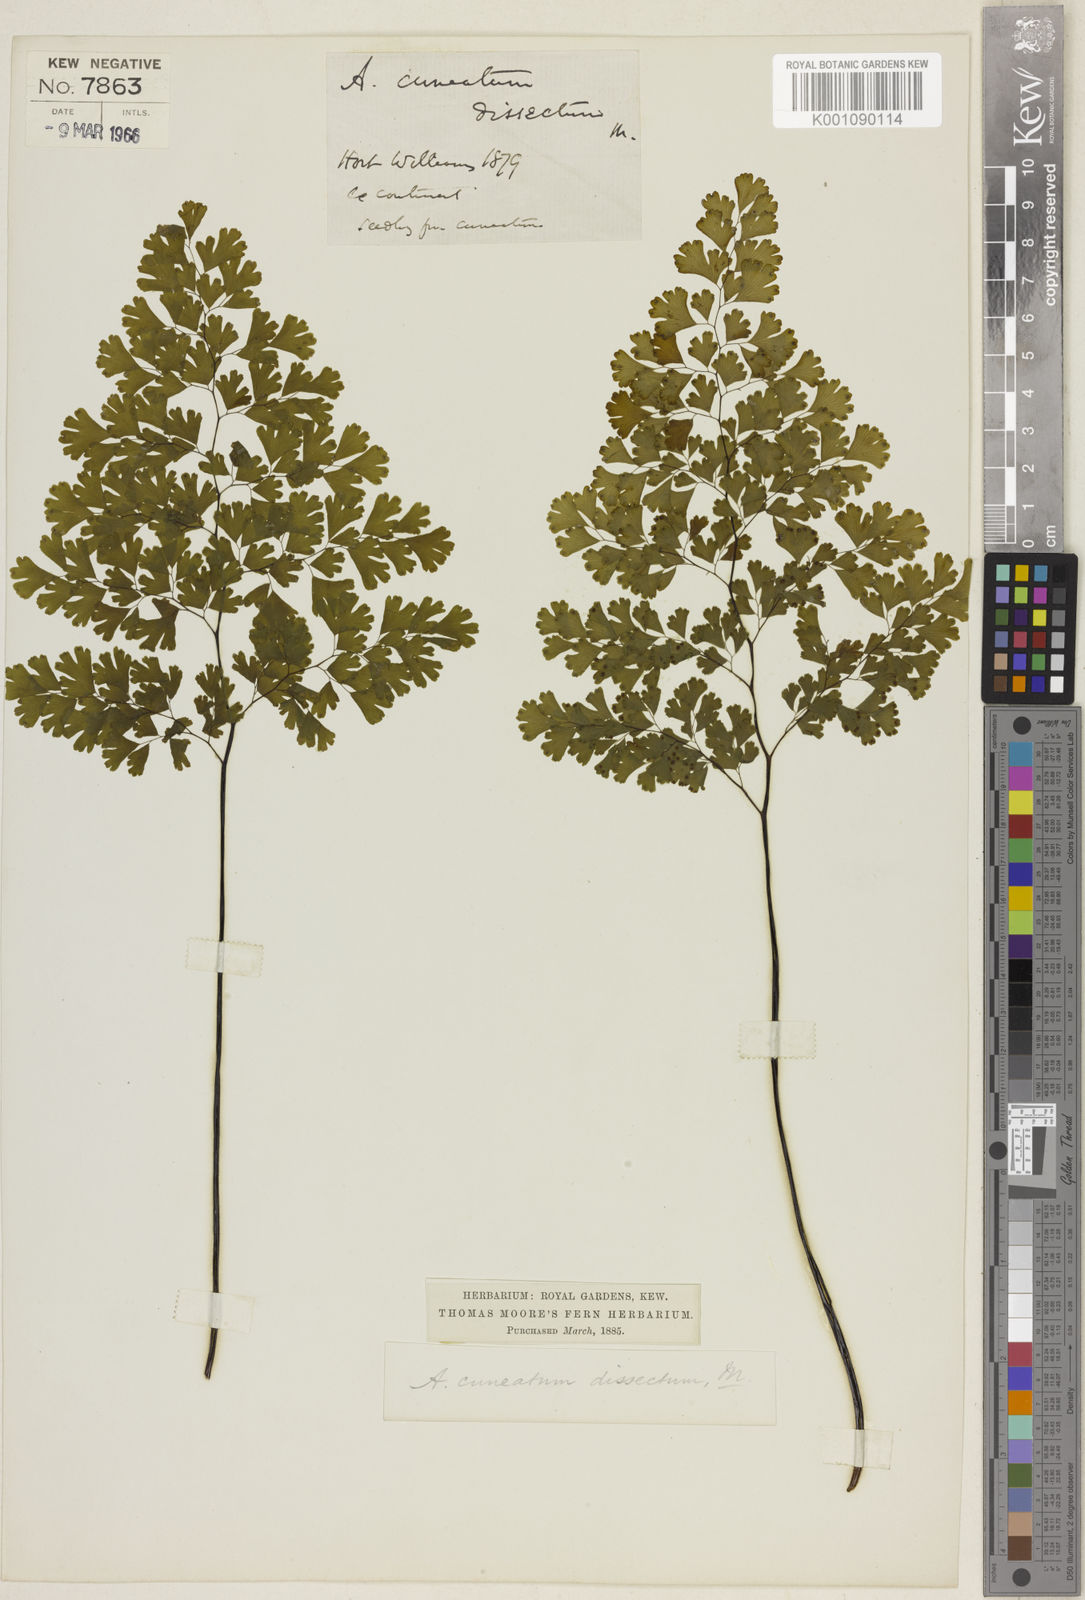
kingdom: Plantae
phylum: Tracheophyta
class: Polypodiopsida
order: Polypodiales
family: Pteridaceae
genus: Adiantum
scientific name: Adiantum raddianum
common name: Delta maidenhair fern
